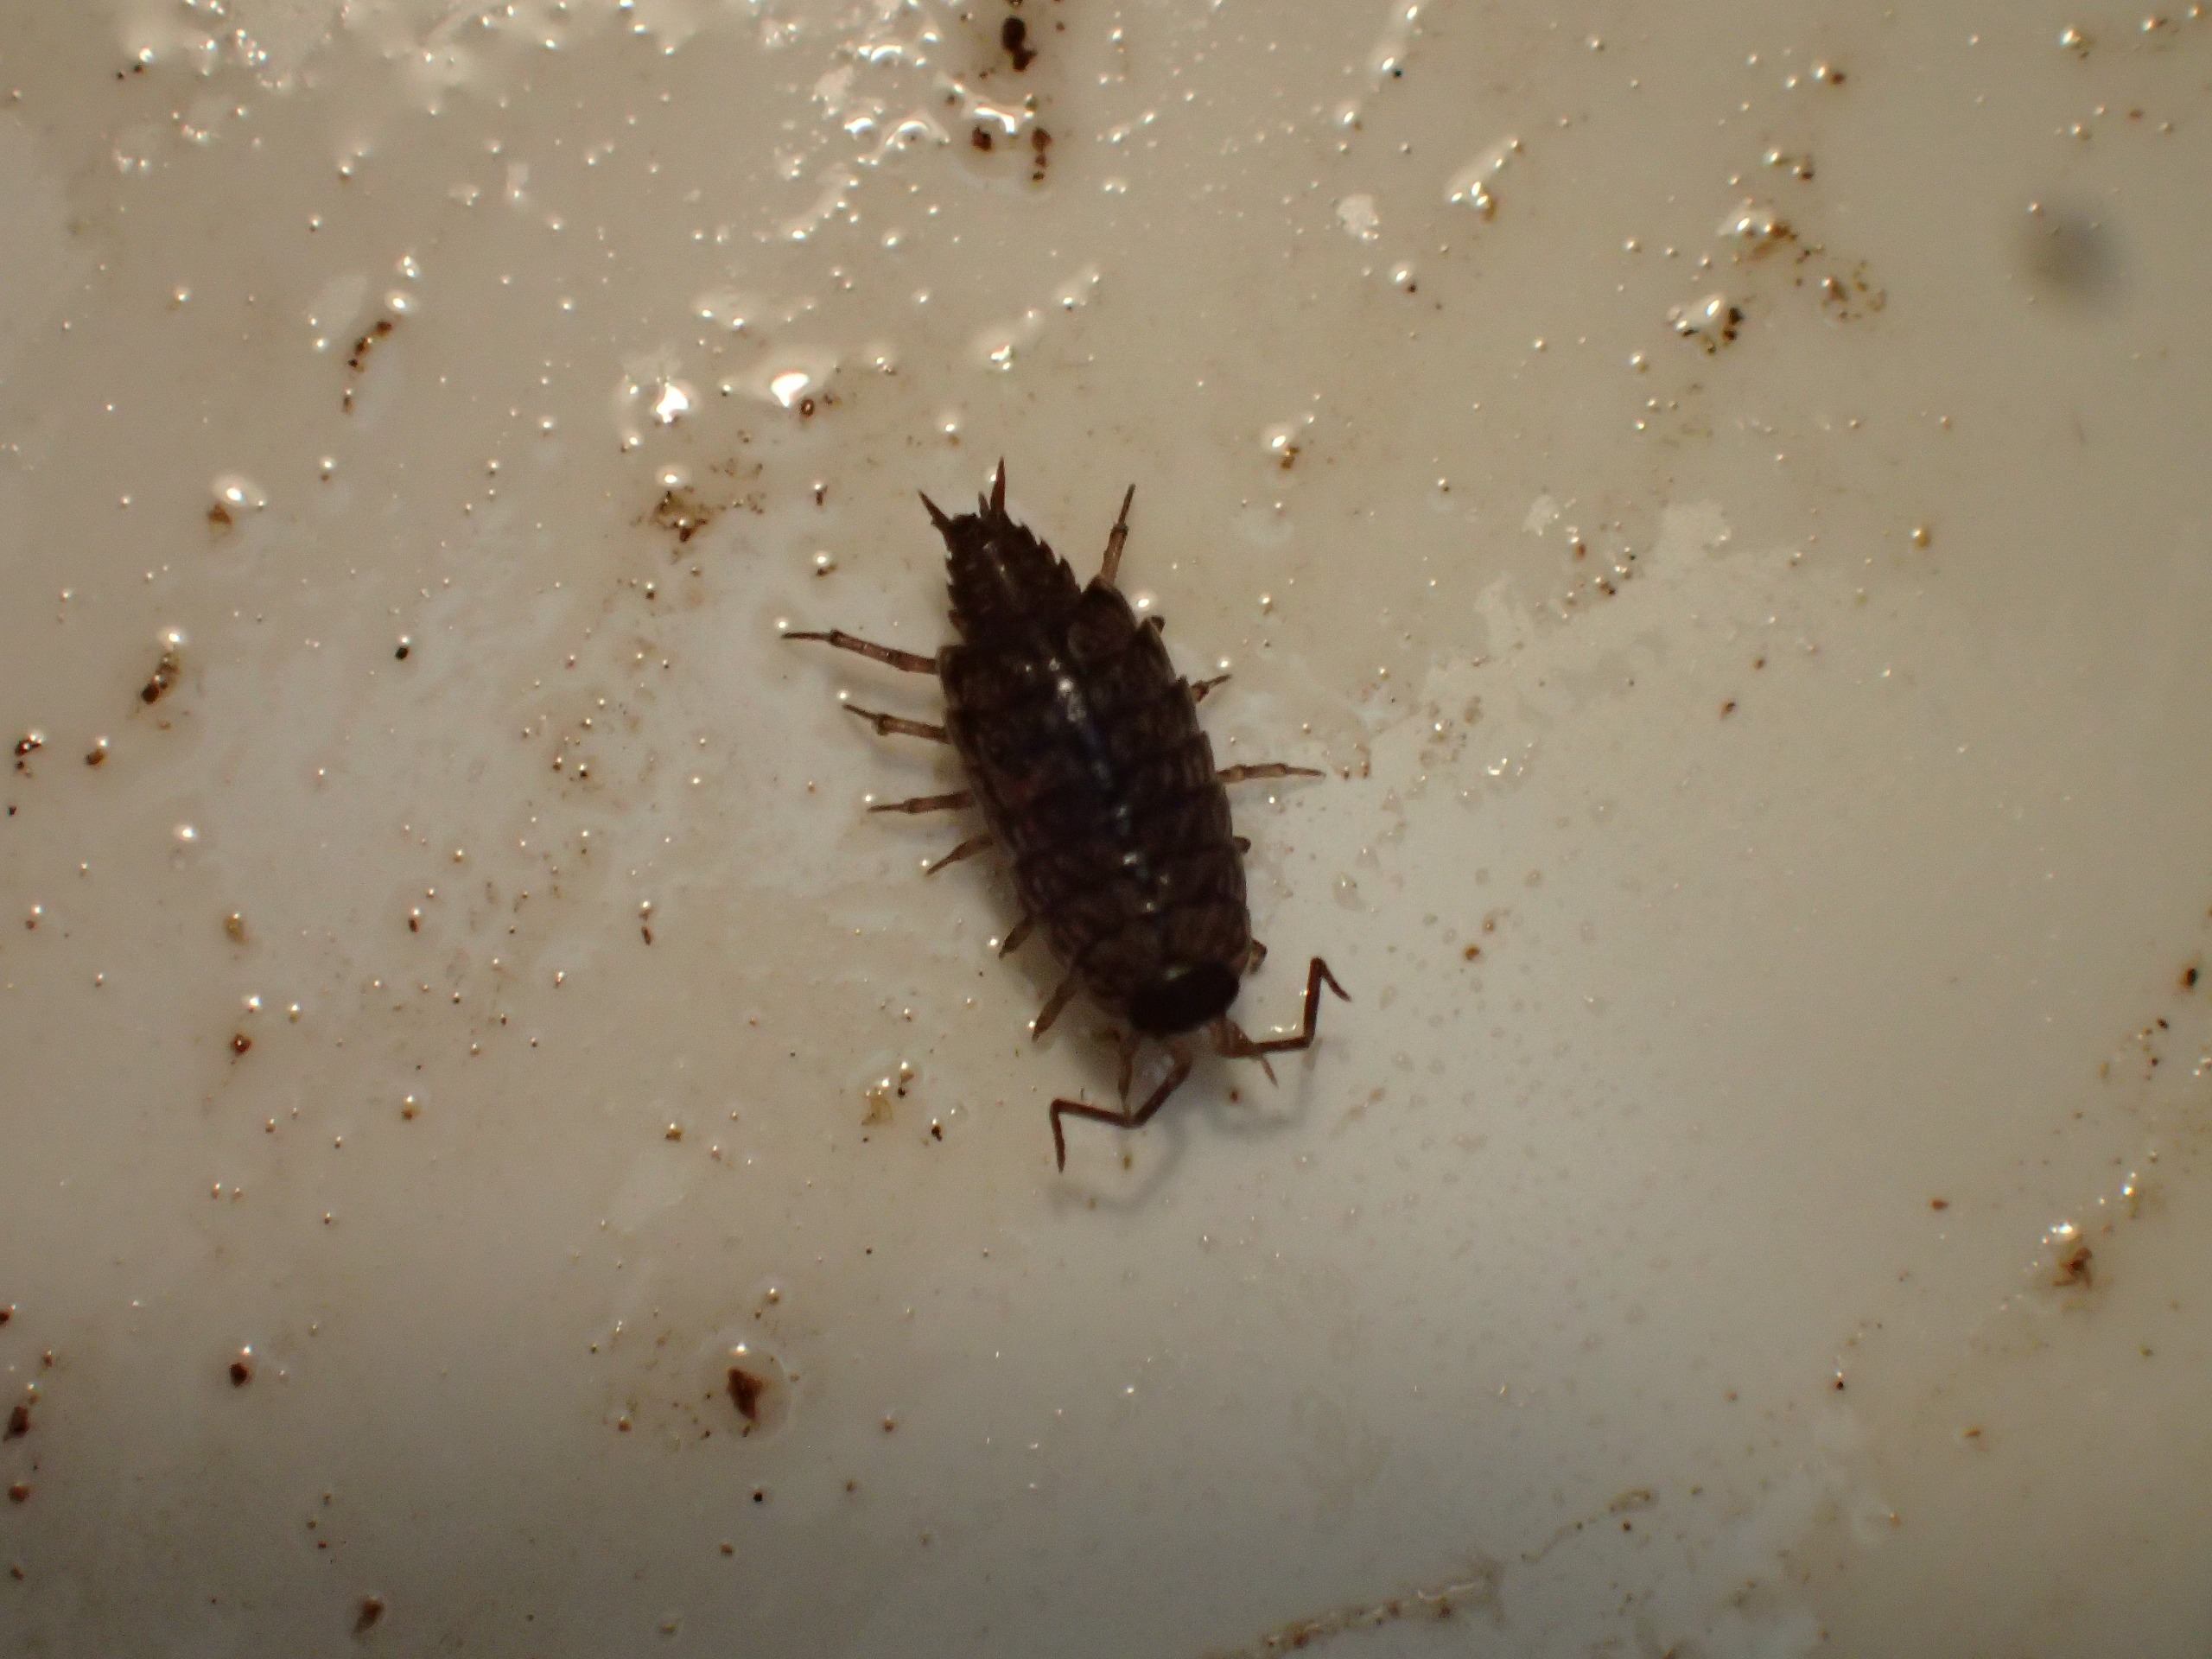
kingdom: Animalia
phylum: Arthropoda
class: Malacostraca
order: Isopoda
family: Philosciidae
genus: Philoscia
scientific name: Philoscia muscorum
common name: Langbenet bænkebider
